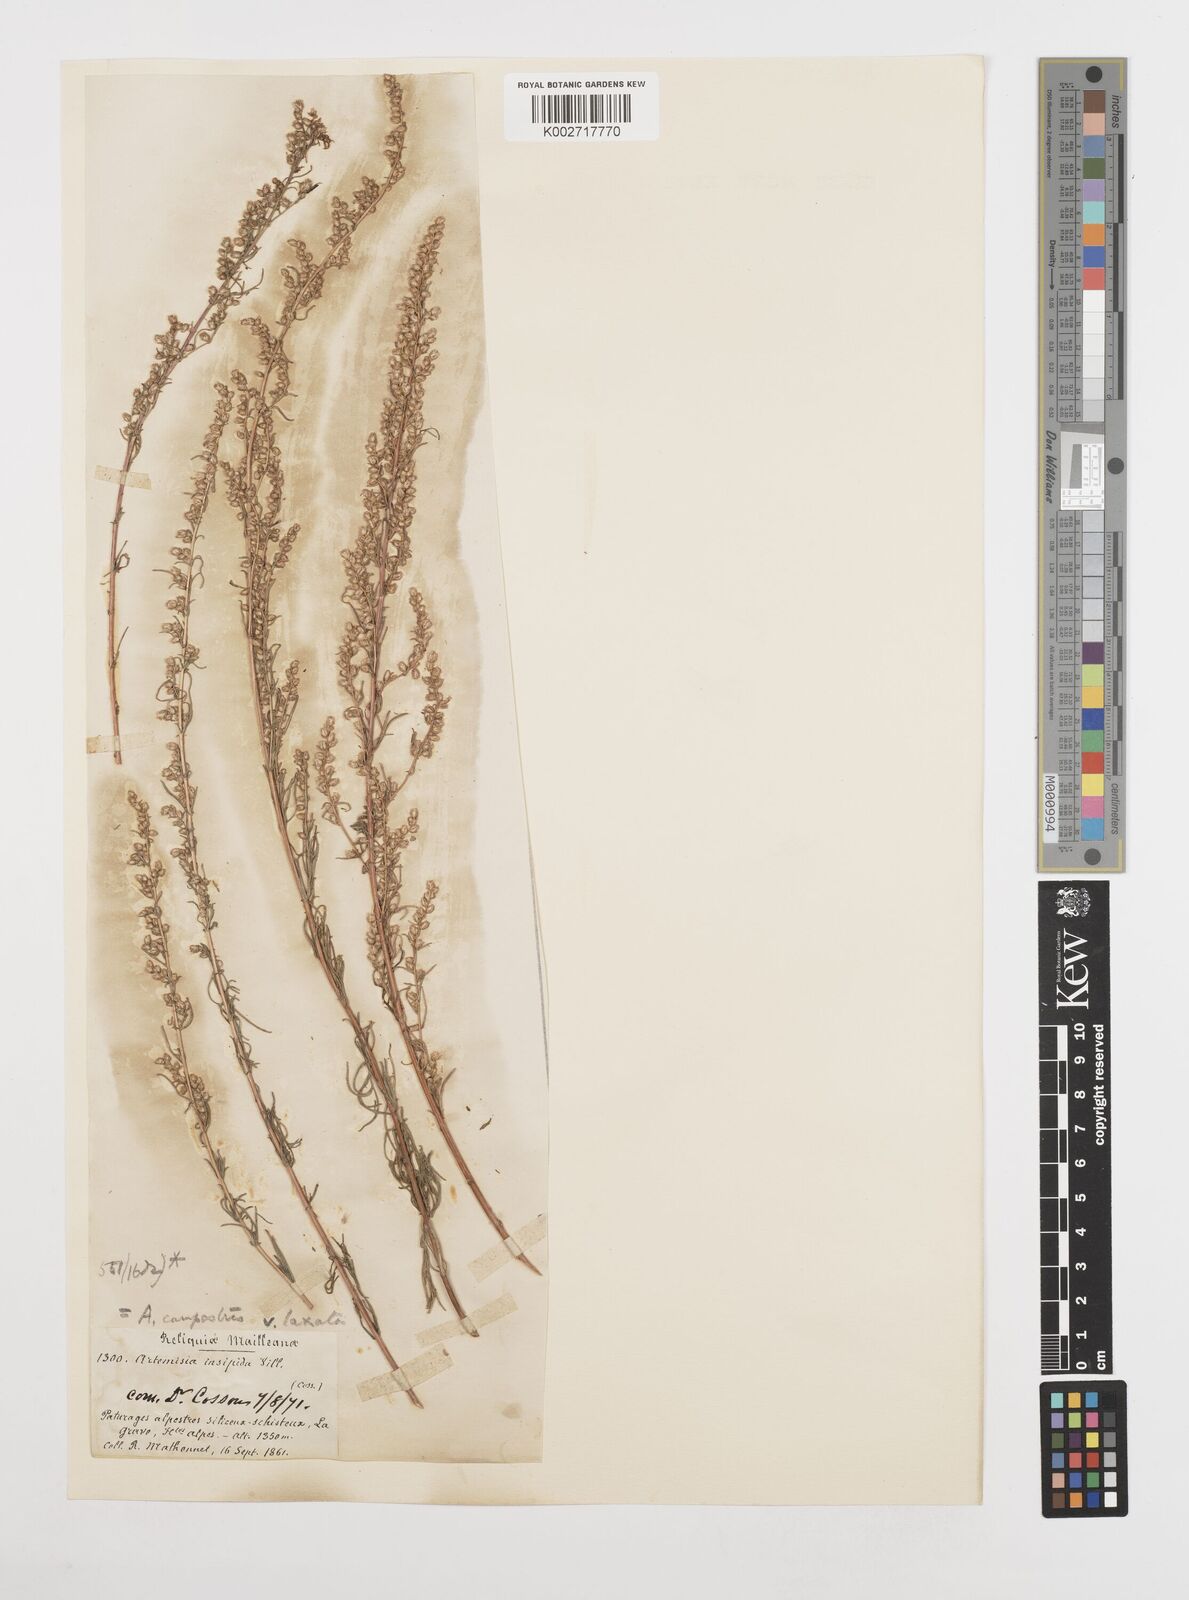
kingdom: Plantae
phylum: Tracheophyta
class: Magnoliopsida
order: Asterales
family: Asteraceae
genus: Artemisia
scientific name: Artemisia
